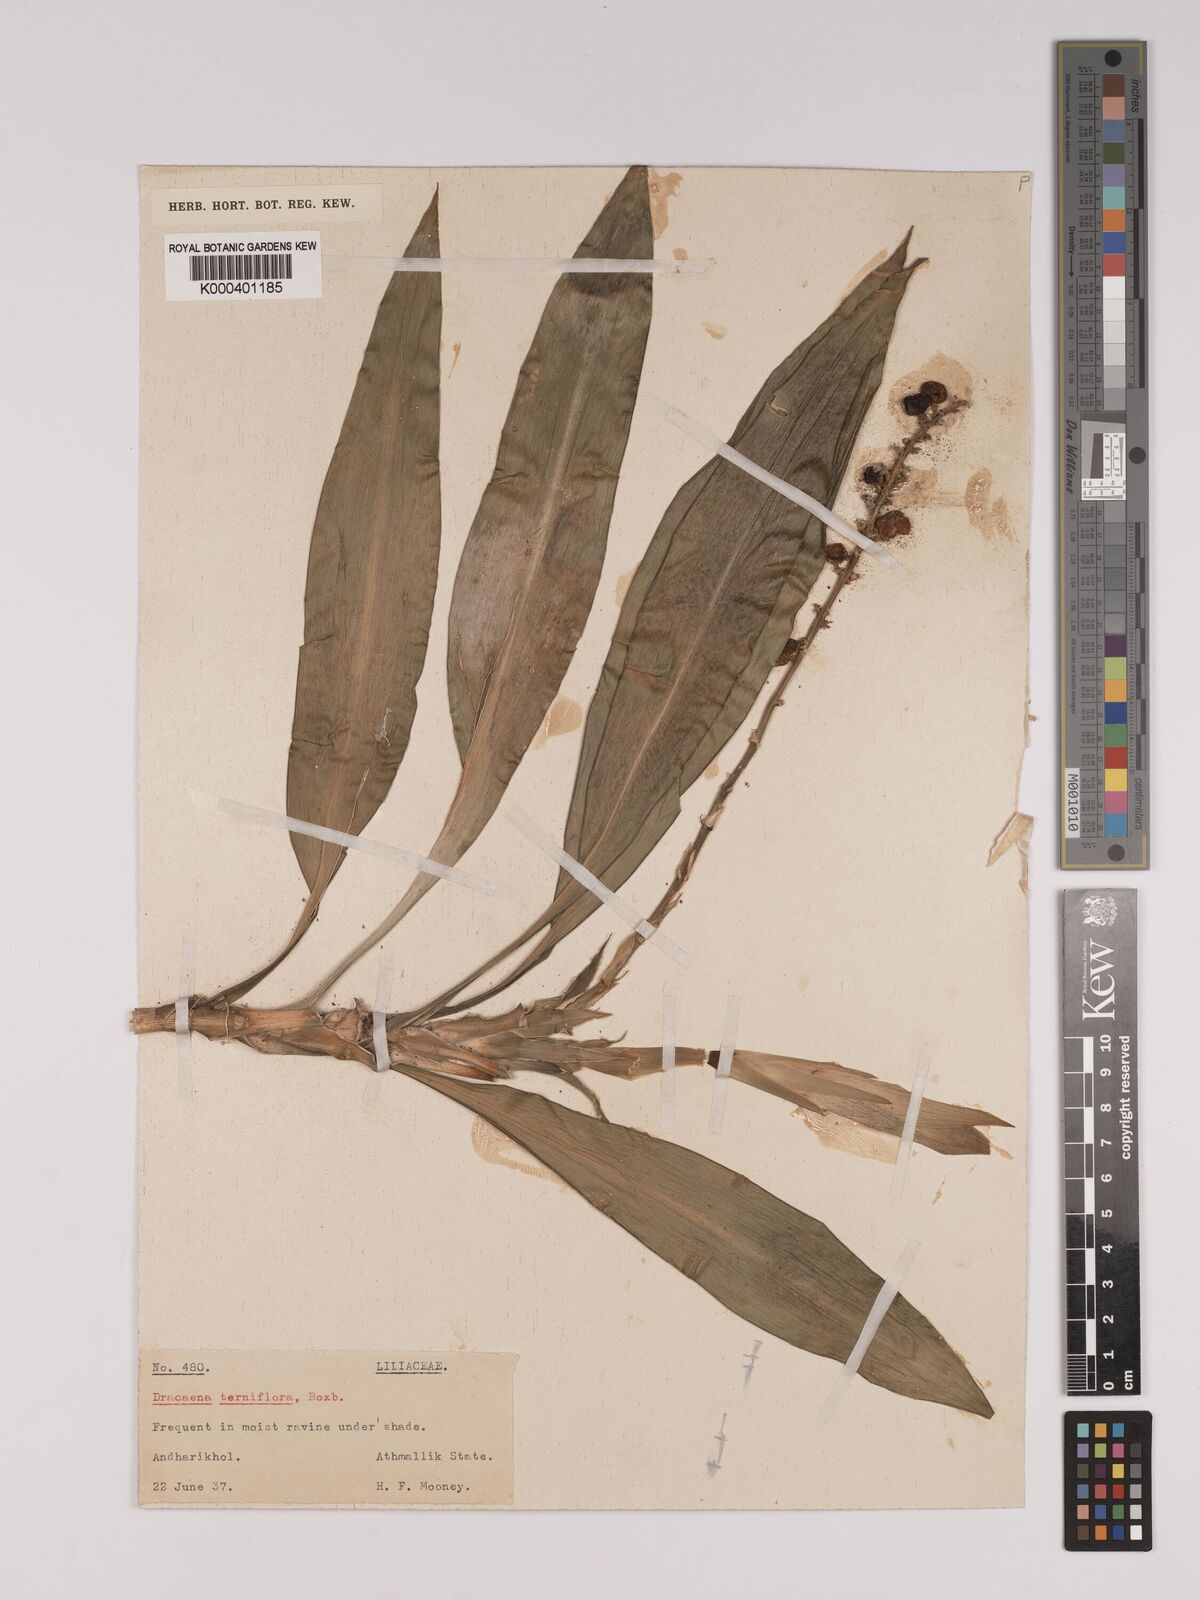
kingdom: Plantae
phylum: Tracheophyta
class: Liliopsida
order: Asparagales
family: Asparagaceae
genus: Dracaena
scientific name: Dracaena terniflora
